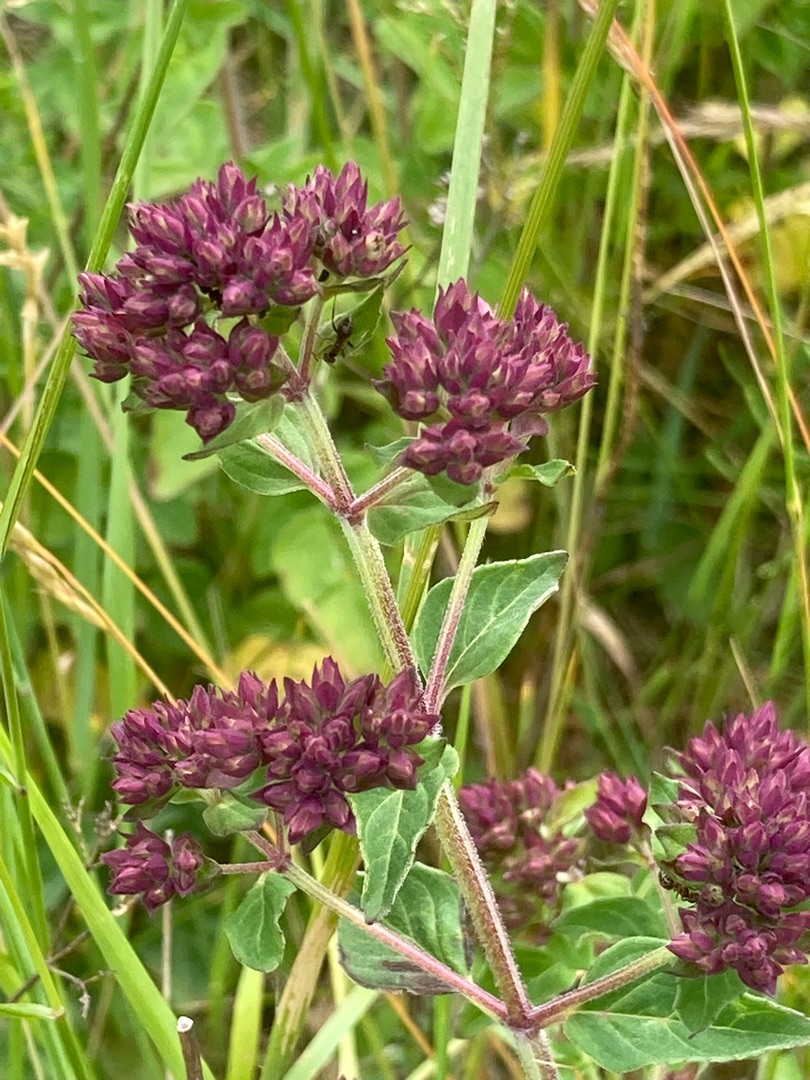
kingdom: Plantae
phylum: Tracheophyta
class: Magnoliopsida
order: Lamiales
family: Lamiaceae
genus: Origanum
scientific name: Origanum vulgare
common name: Merian
